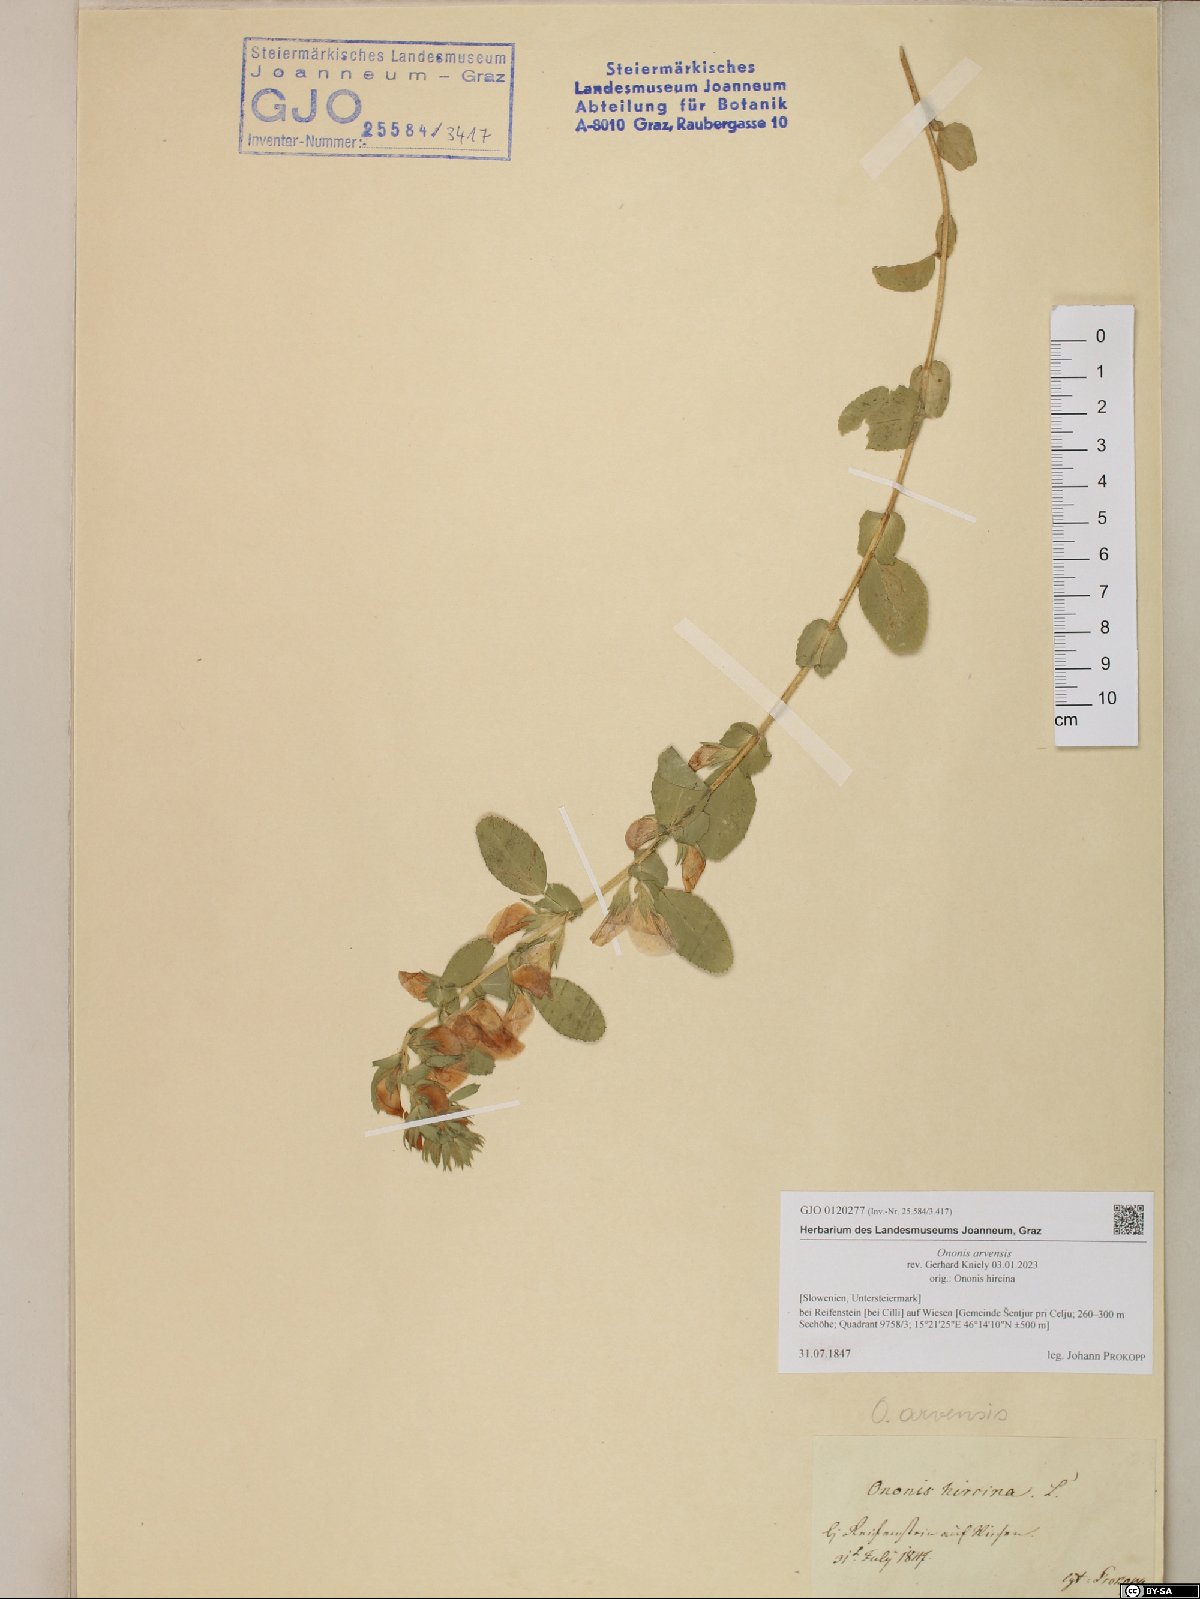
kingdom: Plantae
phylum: Tracheophyta
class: Magnoliopsida
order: Fabales
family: Fabaceae
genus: Ononis
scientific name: Ononis arvensis
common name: Field restharrow
